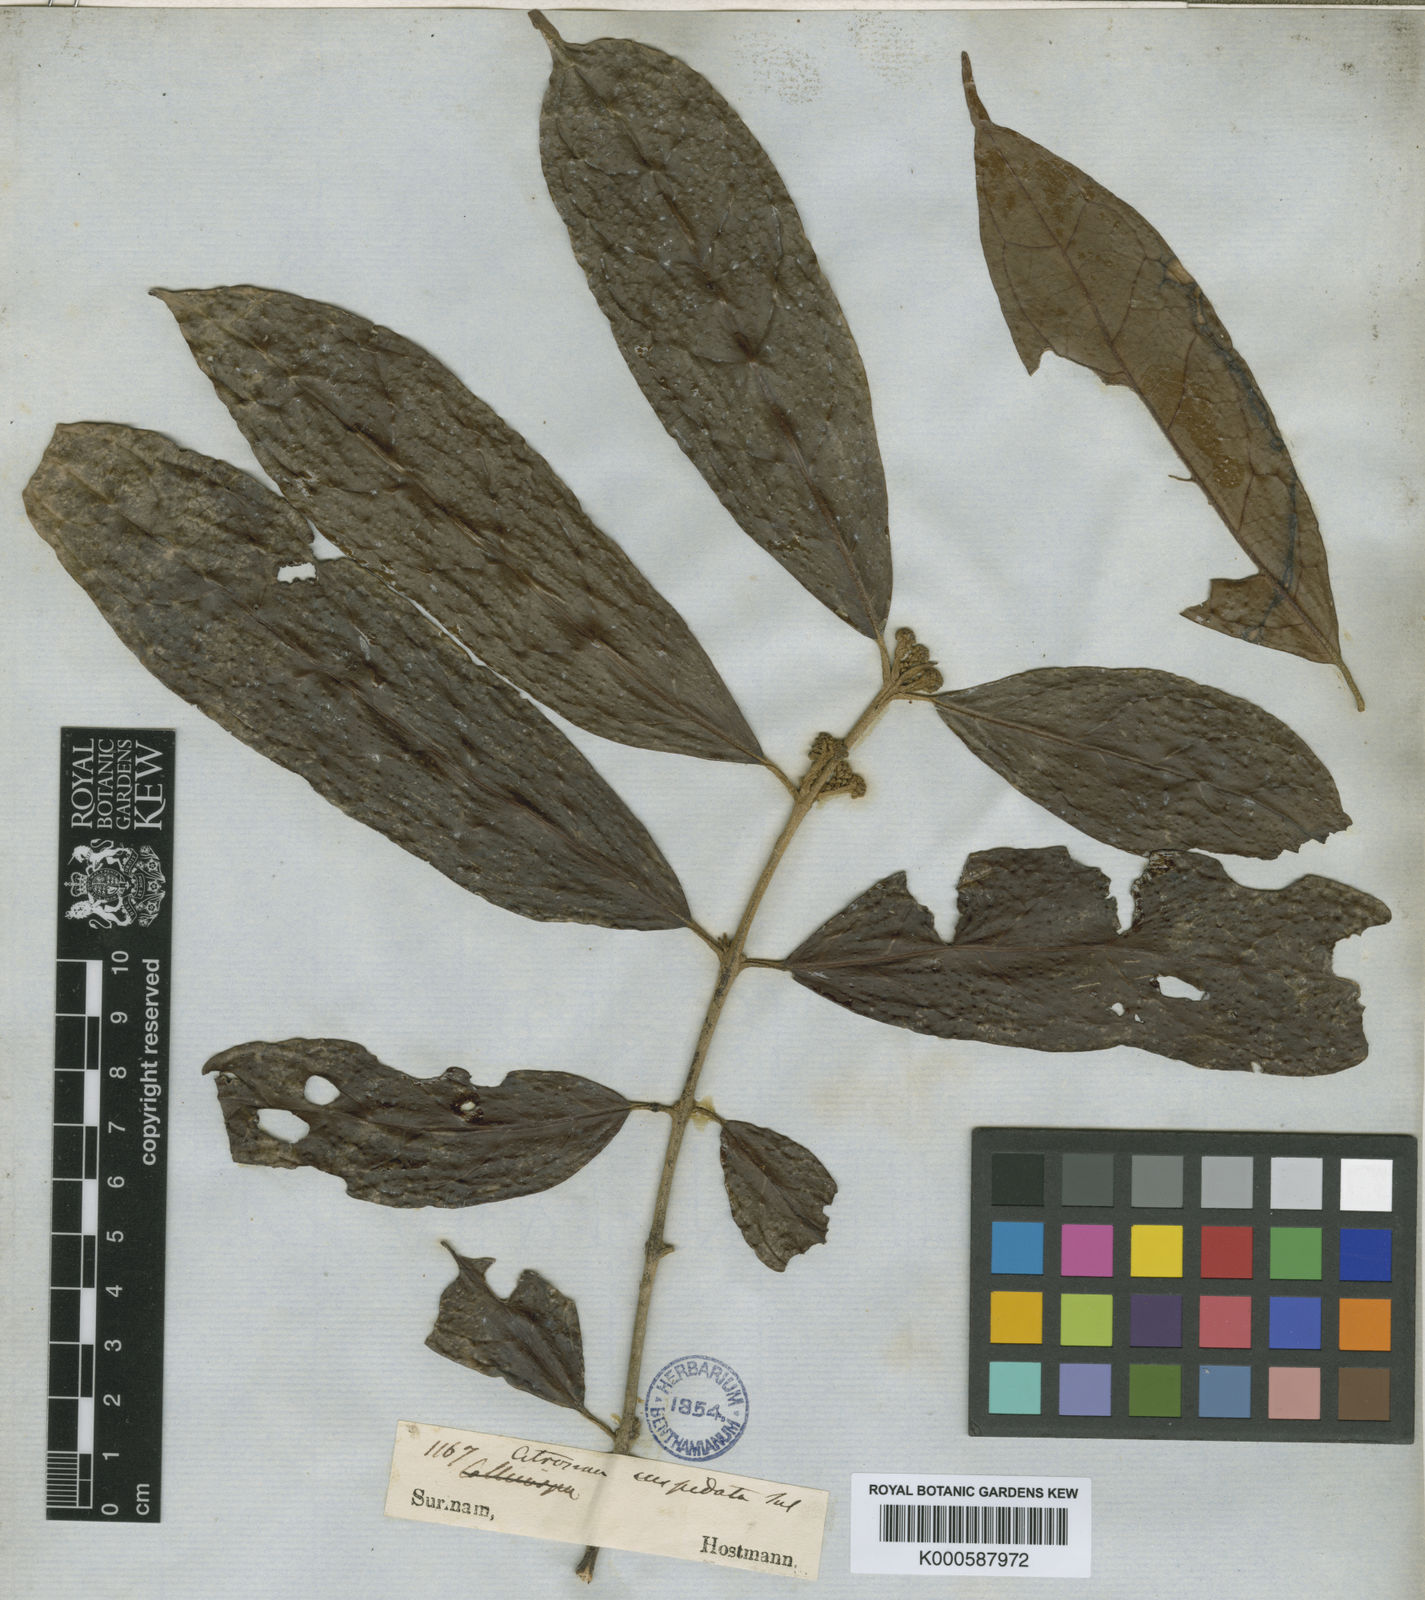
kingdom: Plantae
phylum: Tracheophyta
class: Magnoliopsida
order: Laurales
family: Siparunaceae
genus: Siparuna
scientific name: Siparuna cuspidata
